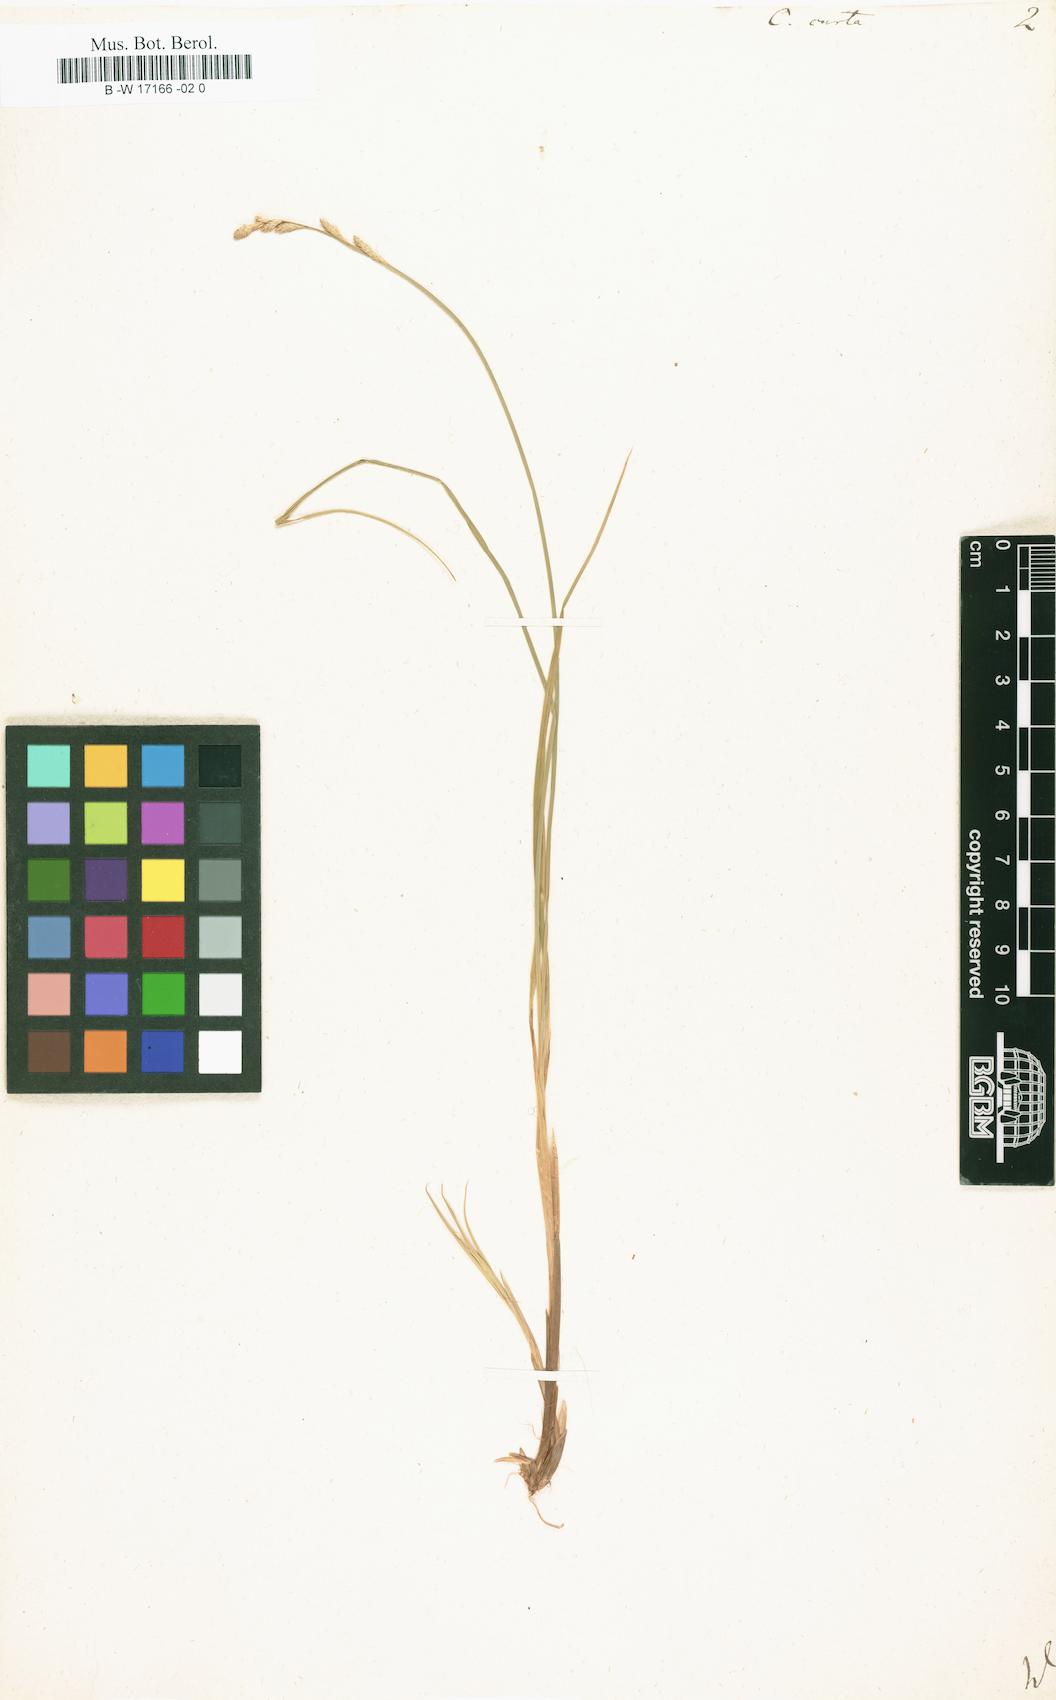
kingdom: Plantae
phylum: Tracheophyta
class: Liliopsida
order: Poales
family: Cyperaceae
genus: Carex
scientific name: Carex curta
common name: White sedge
